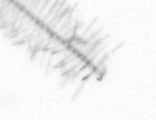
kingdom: Chromista
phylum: Ochrophyta
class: Bacillariophyceae
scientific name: Bacillariophyceae
